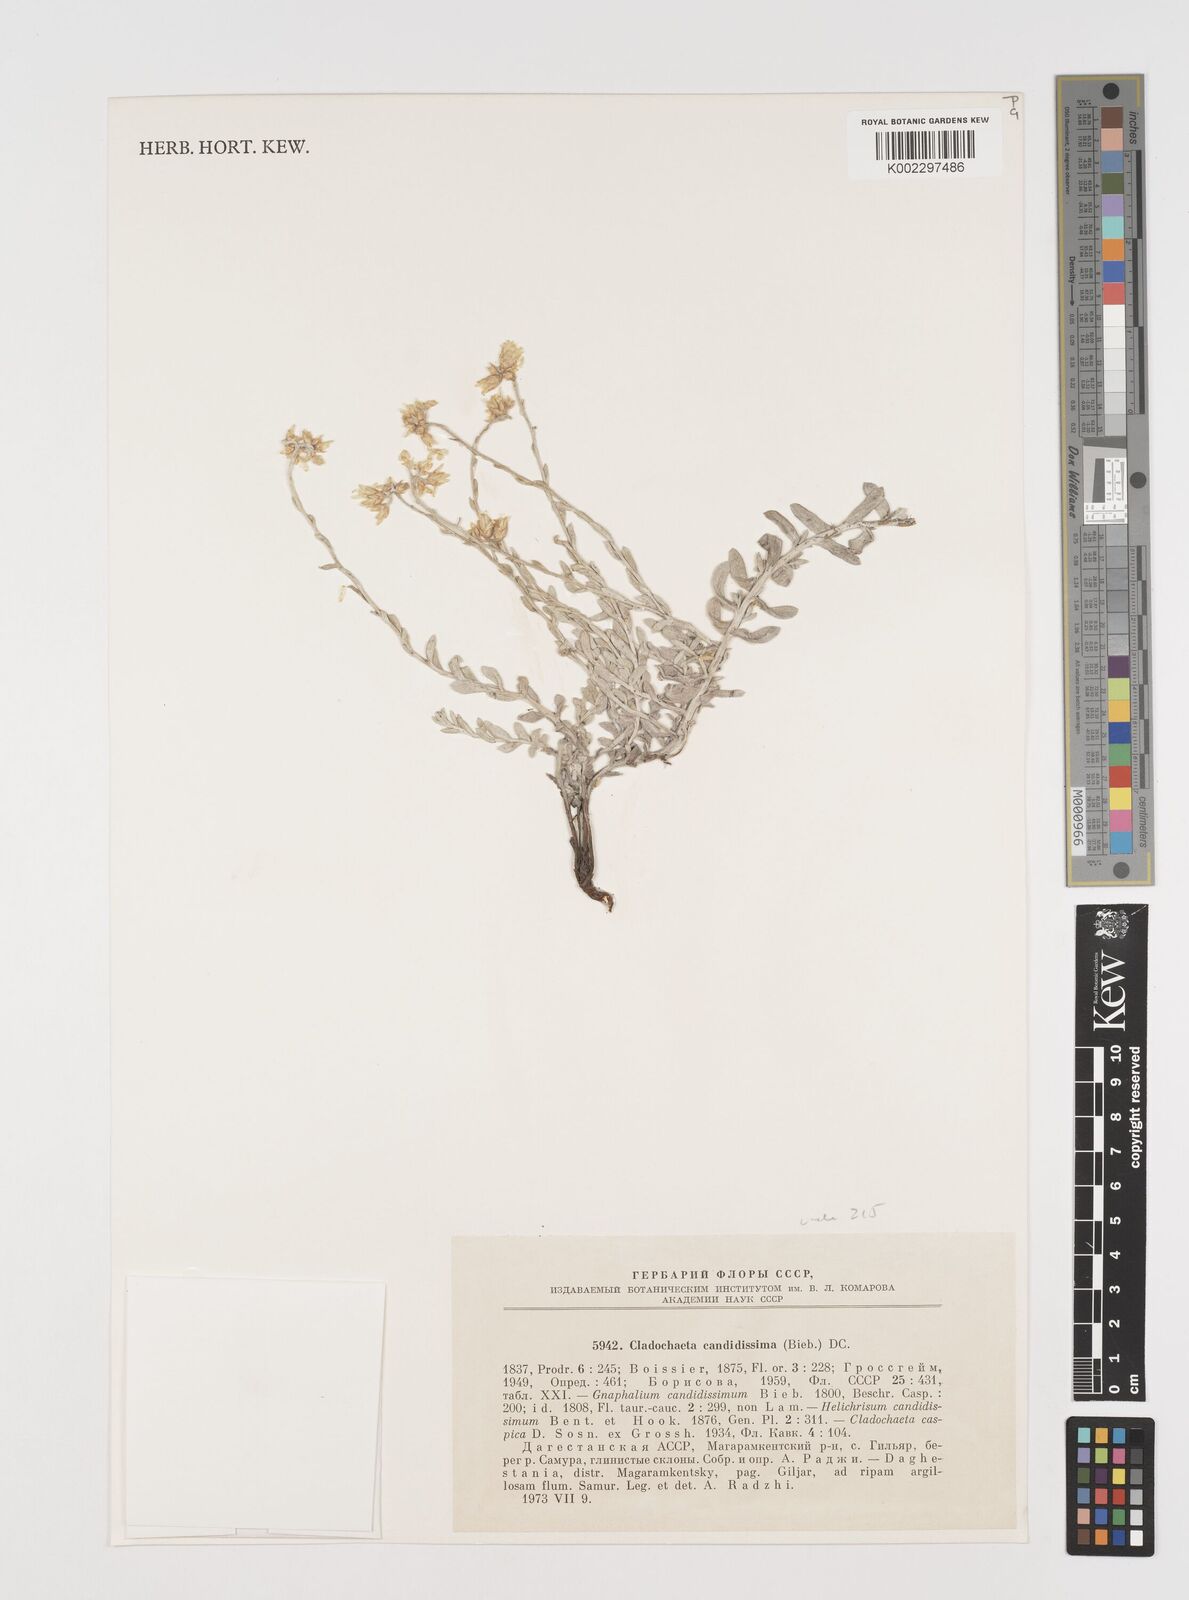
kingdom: Plantae
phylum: Tracheophyta
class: Magnoliopsida
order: Asterales
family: Asteraceae
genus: Cladochaeta
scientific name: Cladochaeta candidissima
